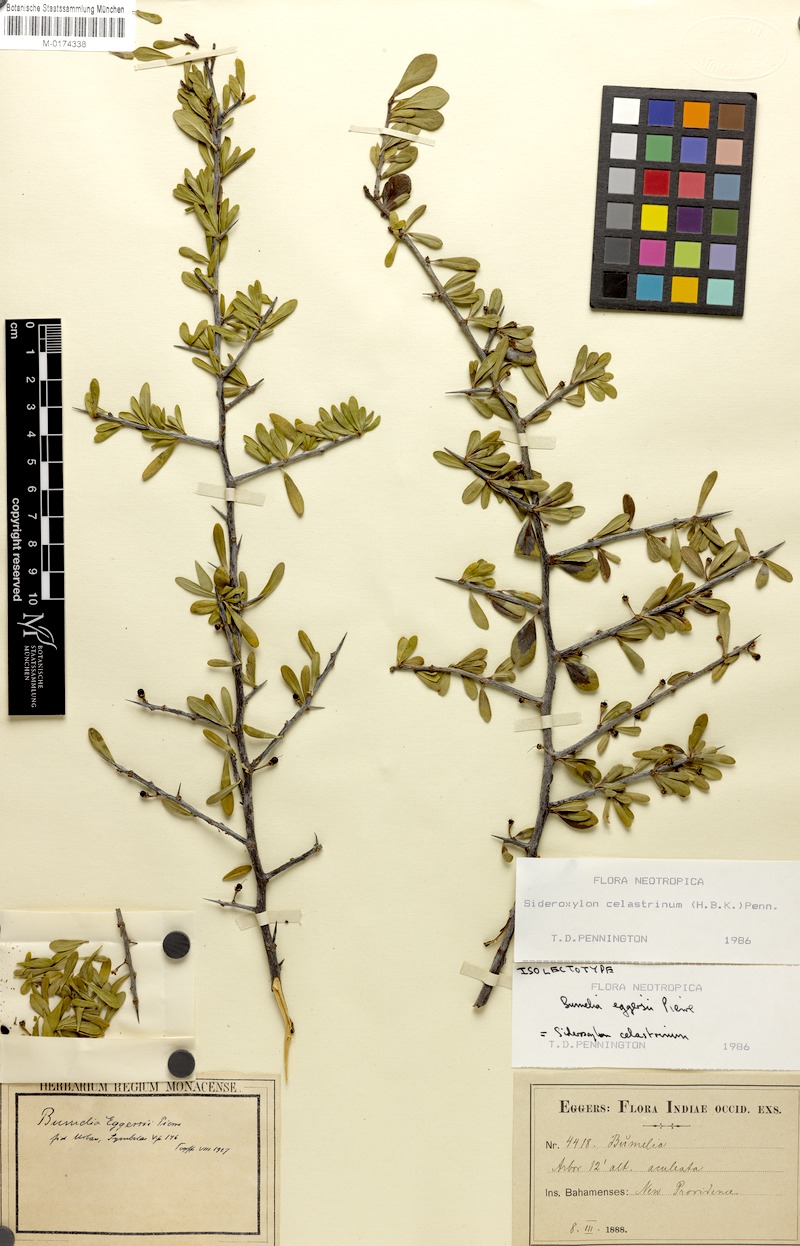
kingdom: Plantae
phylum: Tracheophyta
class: Magnoliopsida
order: Ericales
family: Sapotaceae
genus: Sideroxylon
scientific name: Sideroxylon celastrinum
